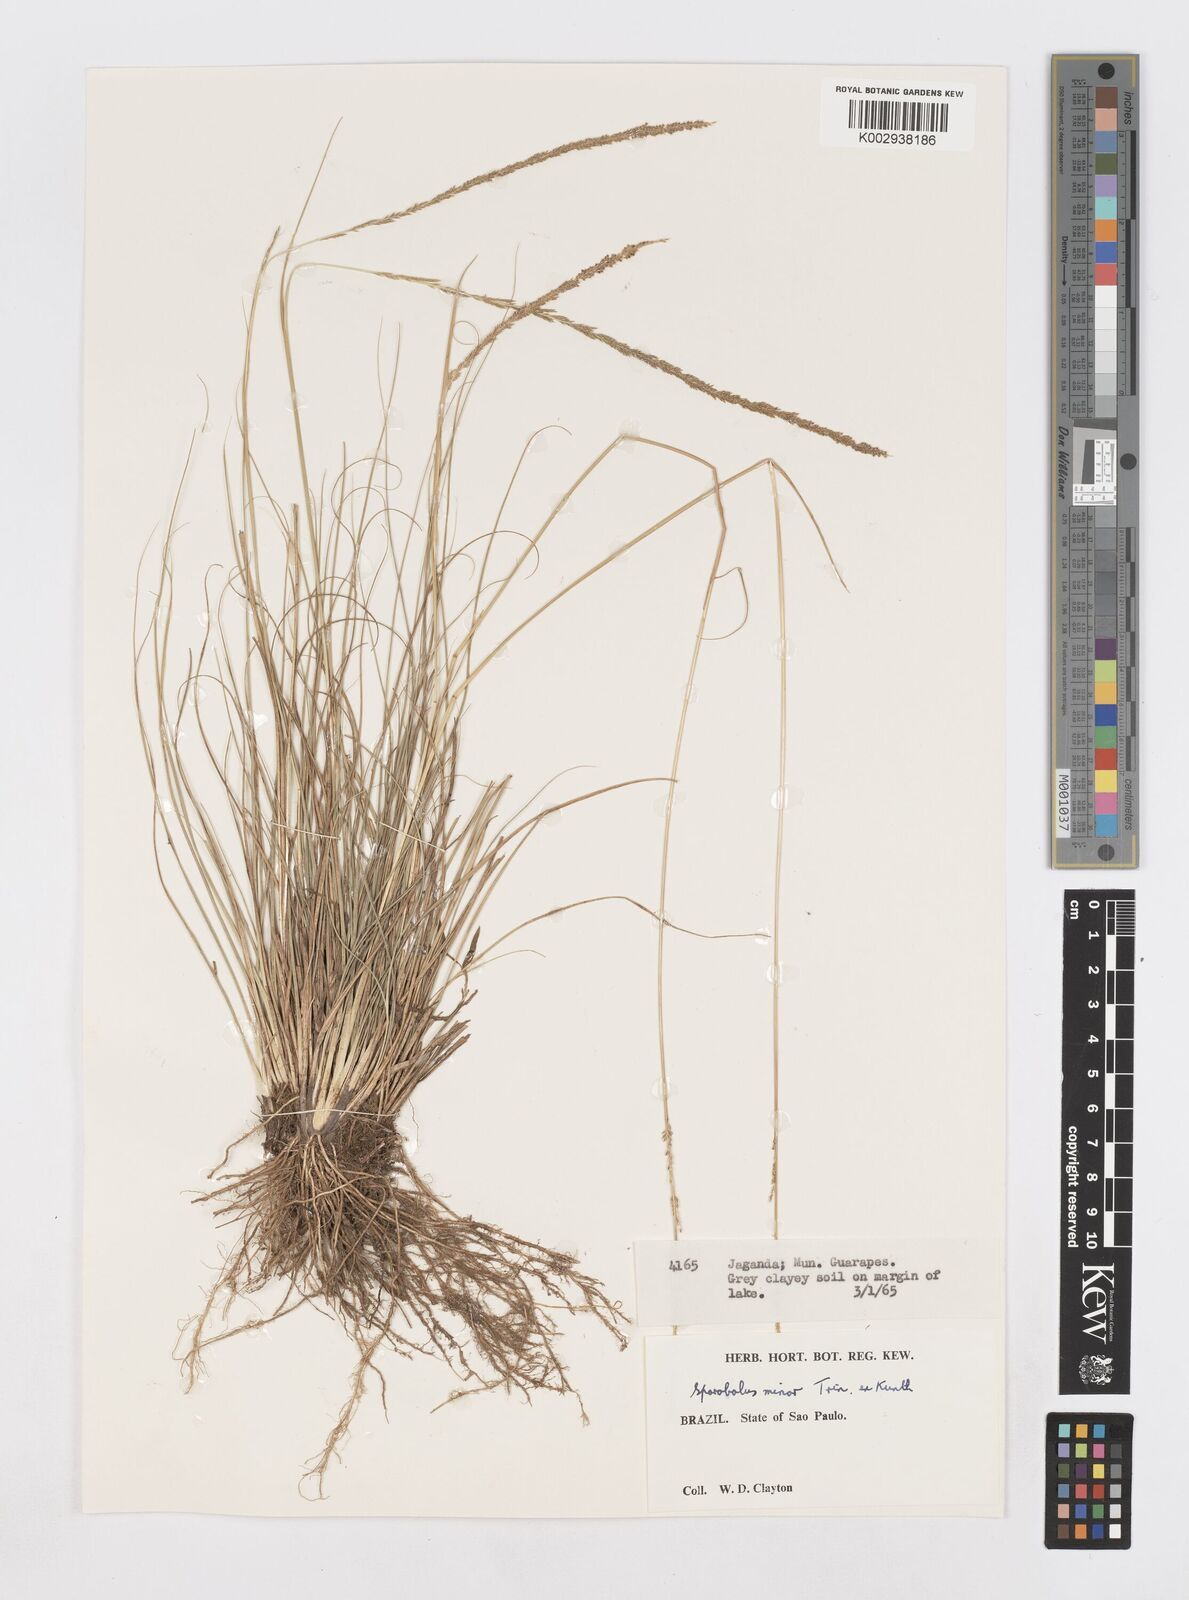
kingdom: Plantae
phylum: Tracheophyta
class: Liliopsida
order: Poales
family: Poaceae
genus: Sporobolus
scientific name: Sporobolus indicus
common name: Smut grass
